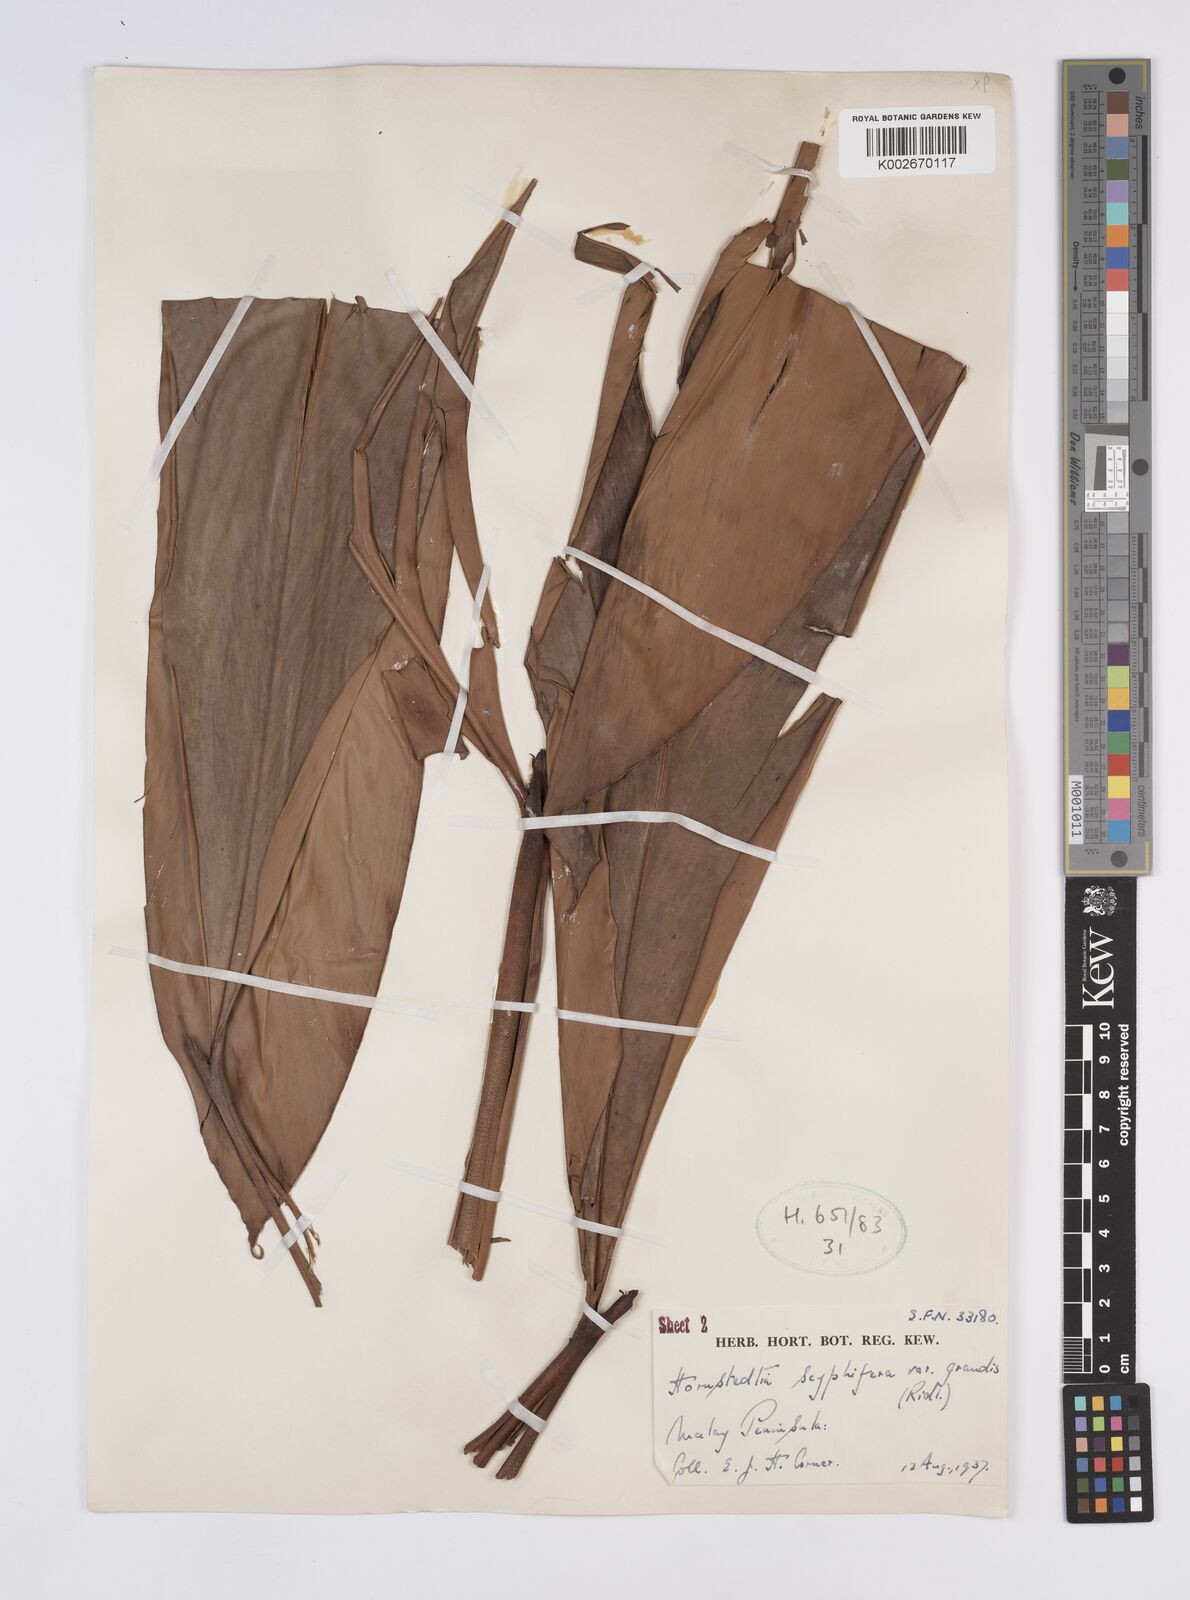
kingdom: Plantae
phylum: Tracheophyta
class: Liliopsida
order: Zingiberales
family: Zingiberaceae
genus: Hornstedtia
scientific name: Hornstedtia scyphifera
